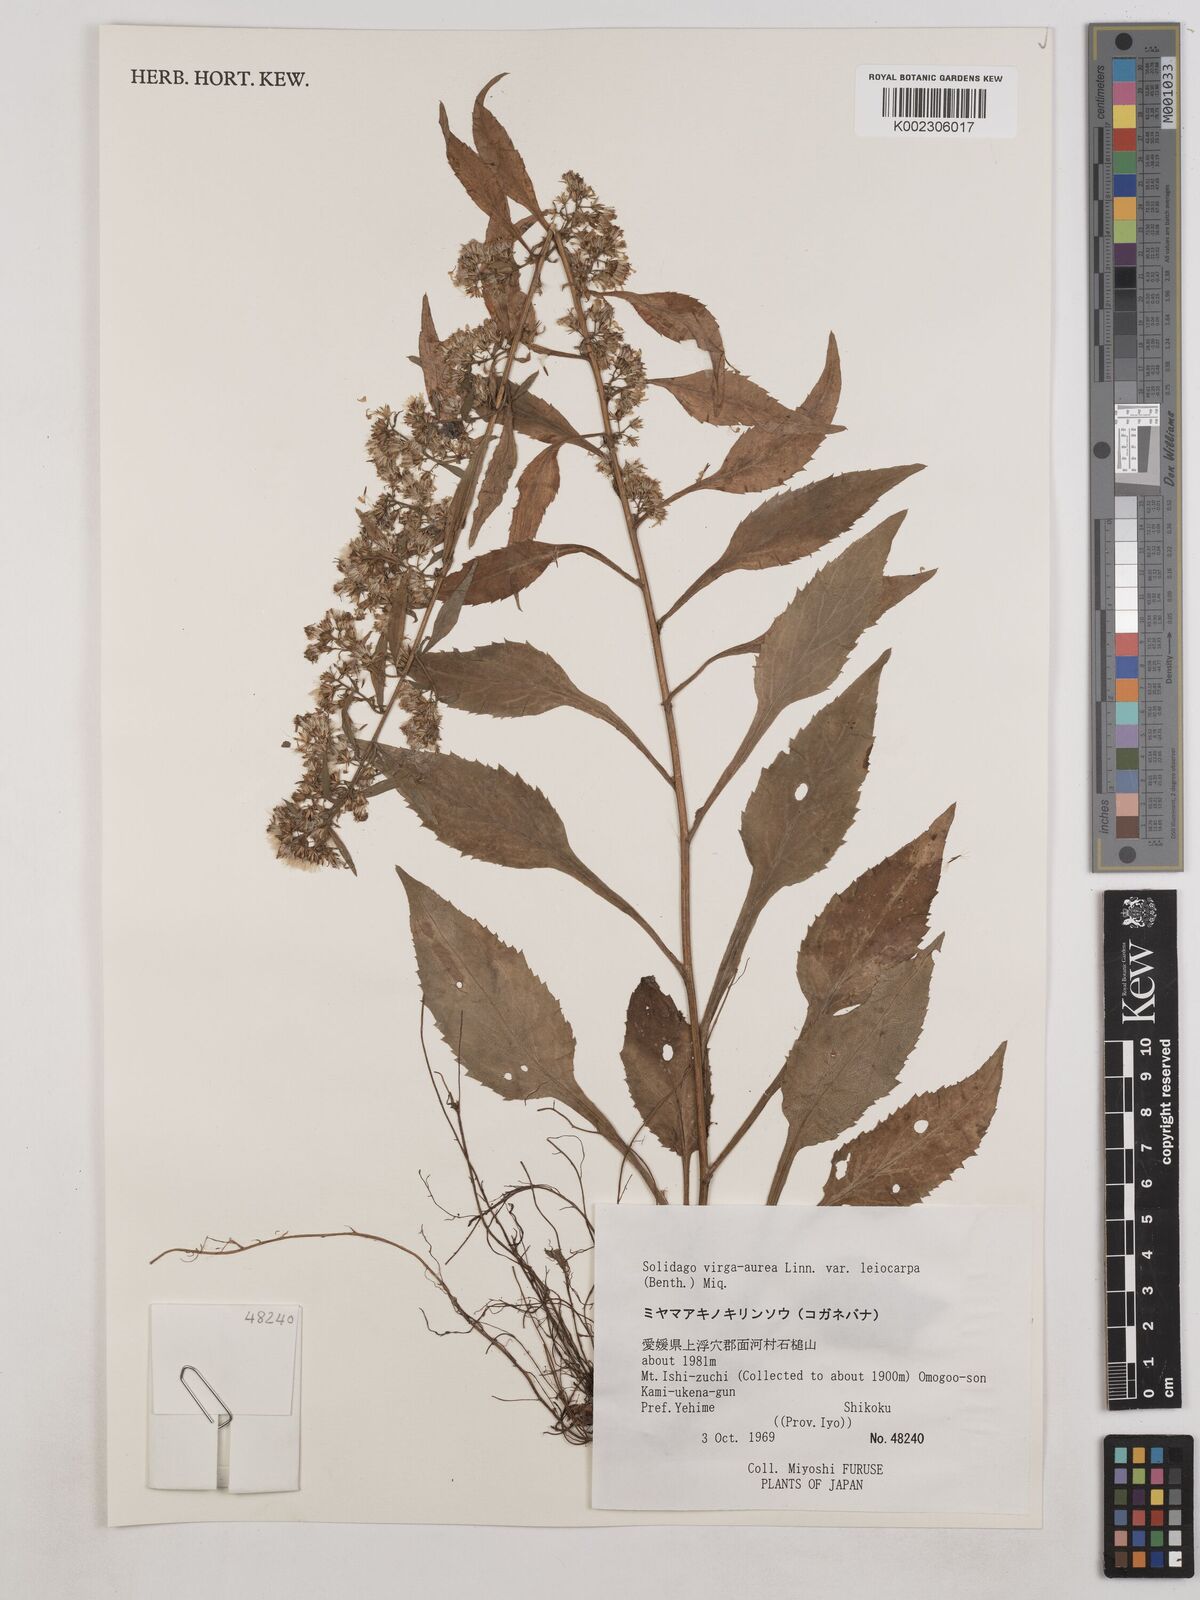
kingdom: Plantae
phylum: Tracheophyta
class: Magnoliopsida
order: Asterales
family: Asteraceae
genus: Solidago
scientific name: Solidago decurrens
